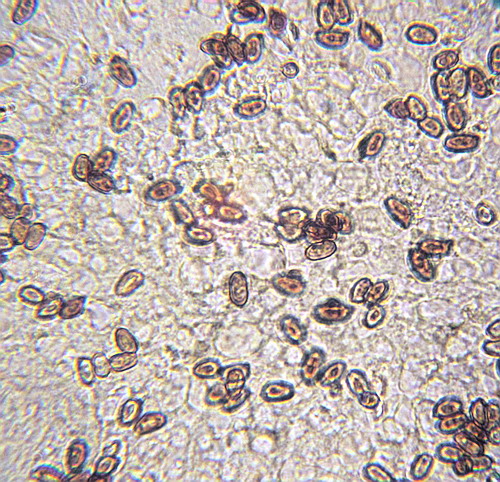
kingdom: Fungi
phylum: Basidiomycota
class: Agaricomycetes
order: Agaricales
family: Agaricaceae
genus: Agaricus
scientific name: Agaricus impudicus
